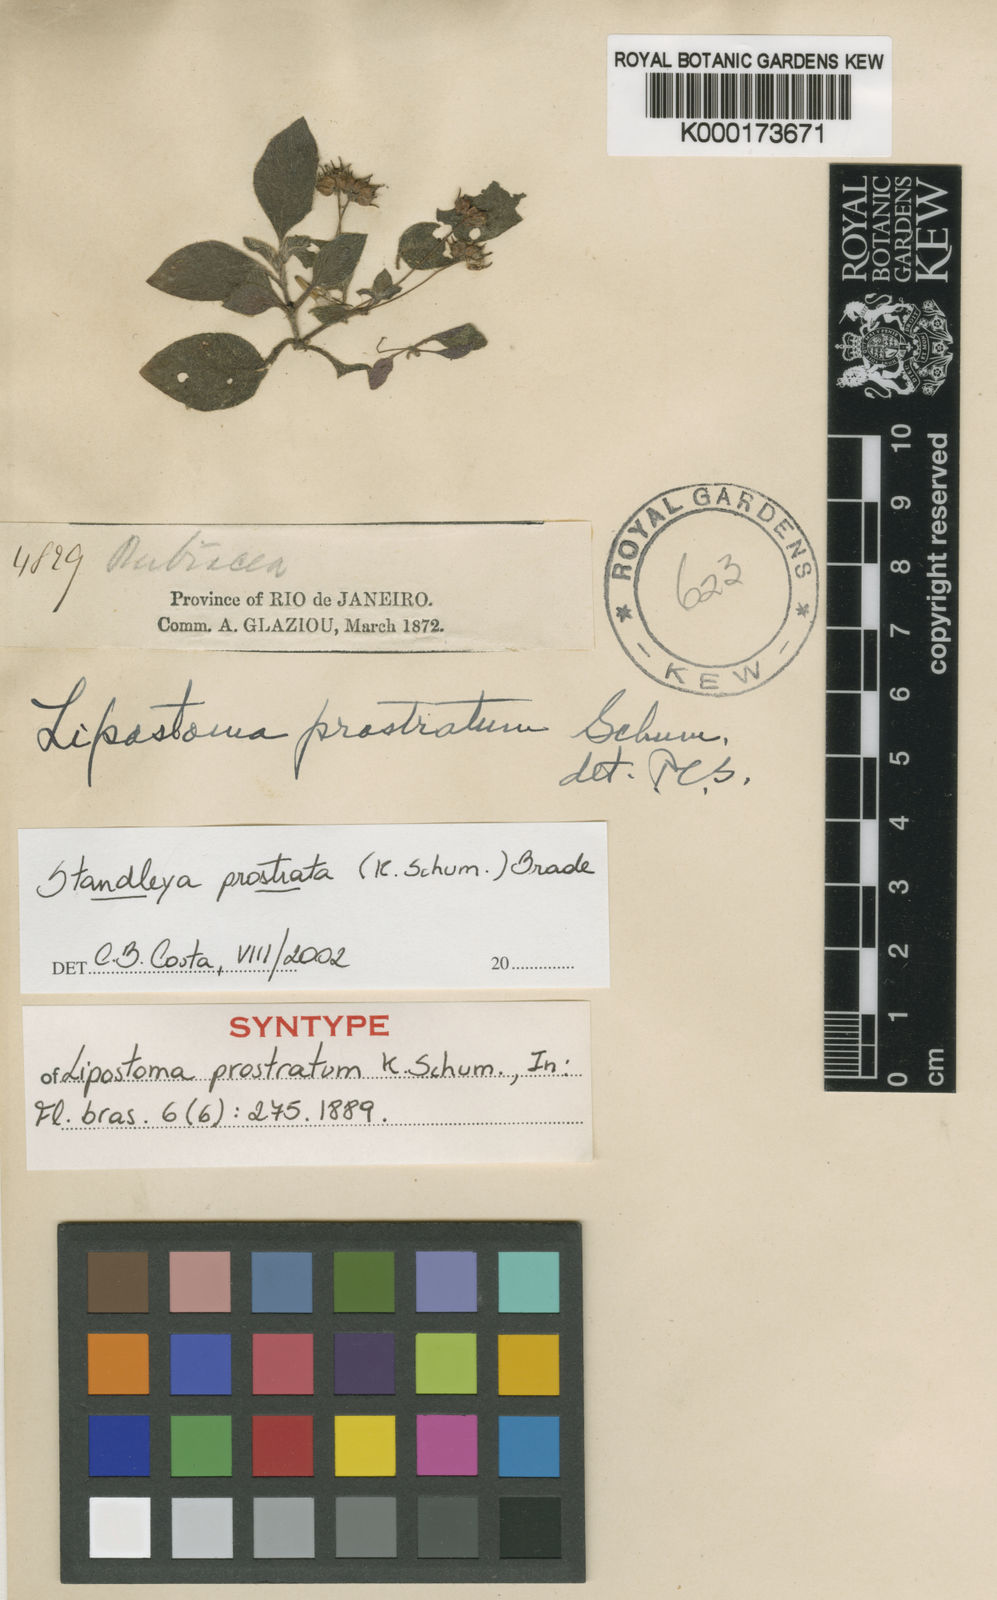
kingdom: Plantae
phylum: Tracheophyta
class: Magnoliopsida
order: Gentianales
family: Rubiaceae
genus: Standleya
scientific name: Standleya prostrata
